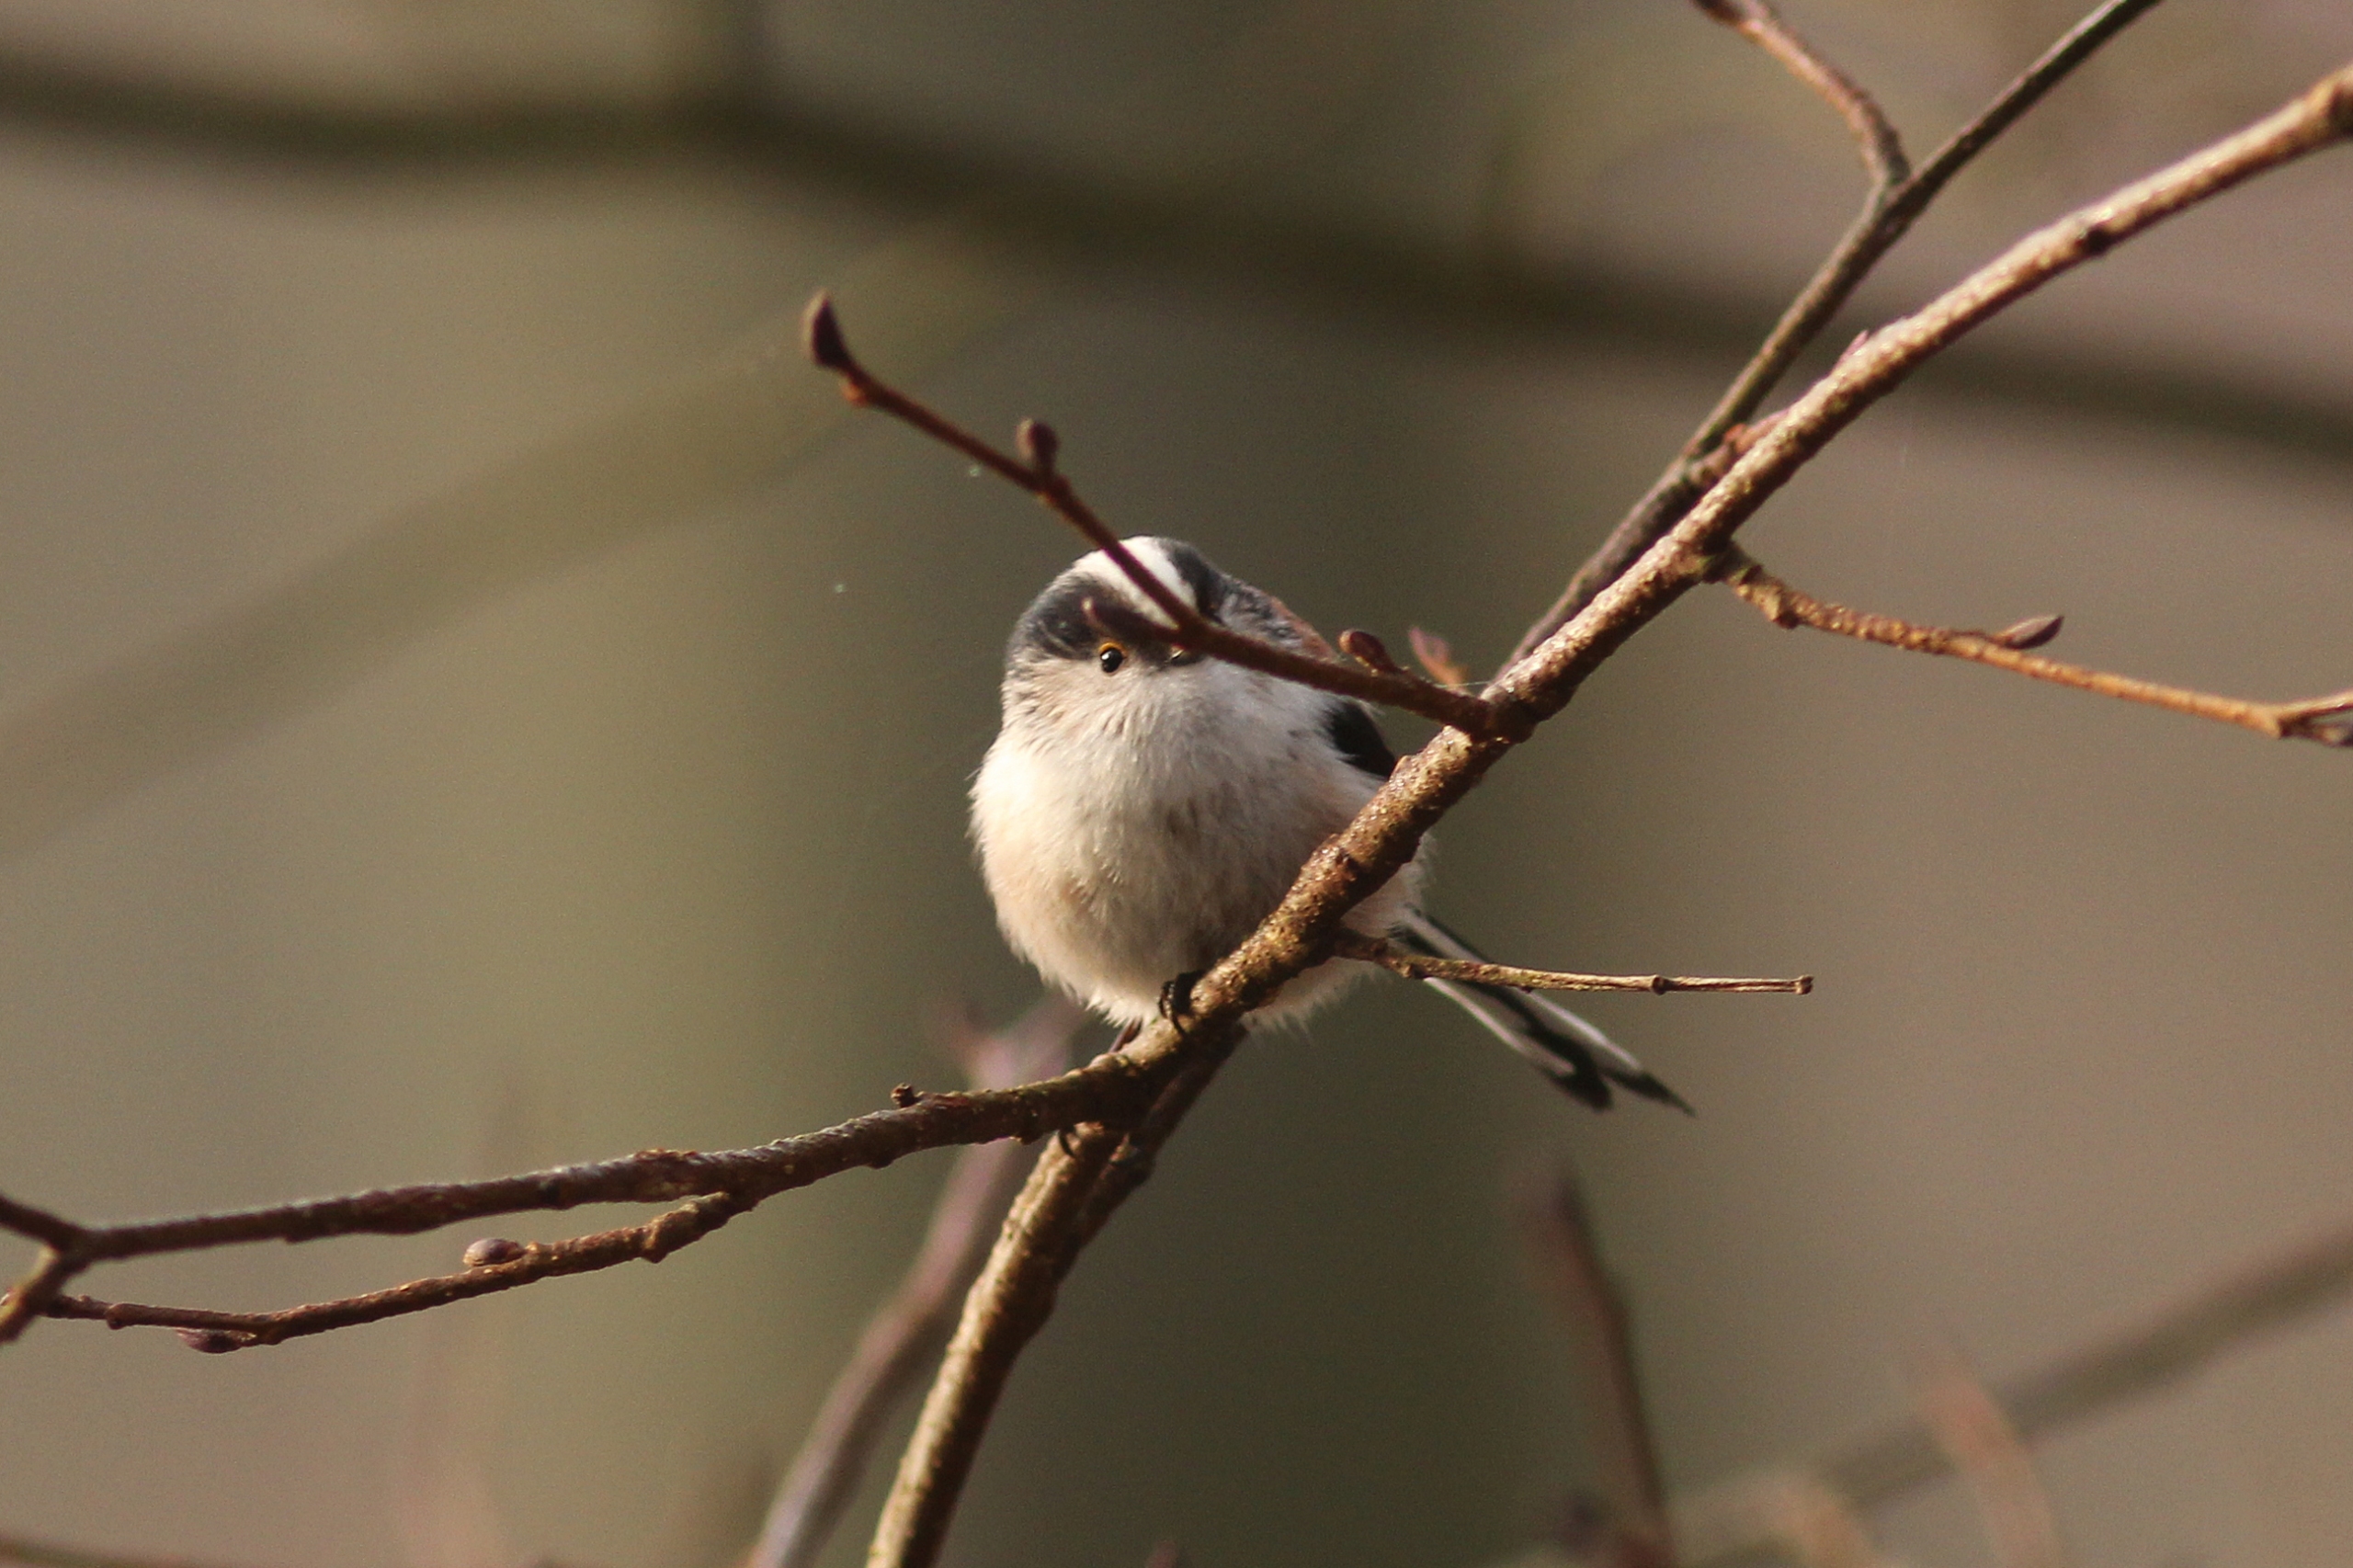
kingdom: Animalia
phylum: Chordata
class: Aves
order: Passeriformes
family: Aegithalidae
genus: Aegithalos
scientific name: Aegithalos caudatus
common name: Halemejse
